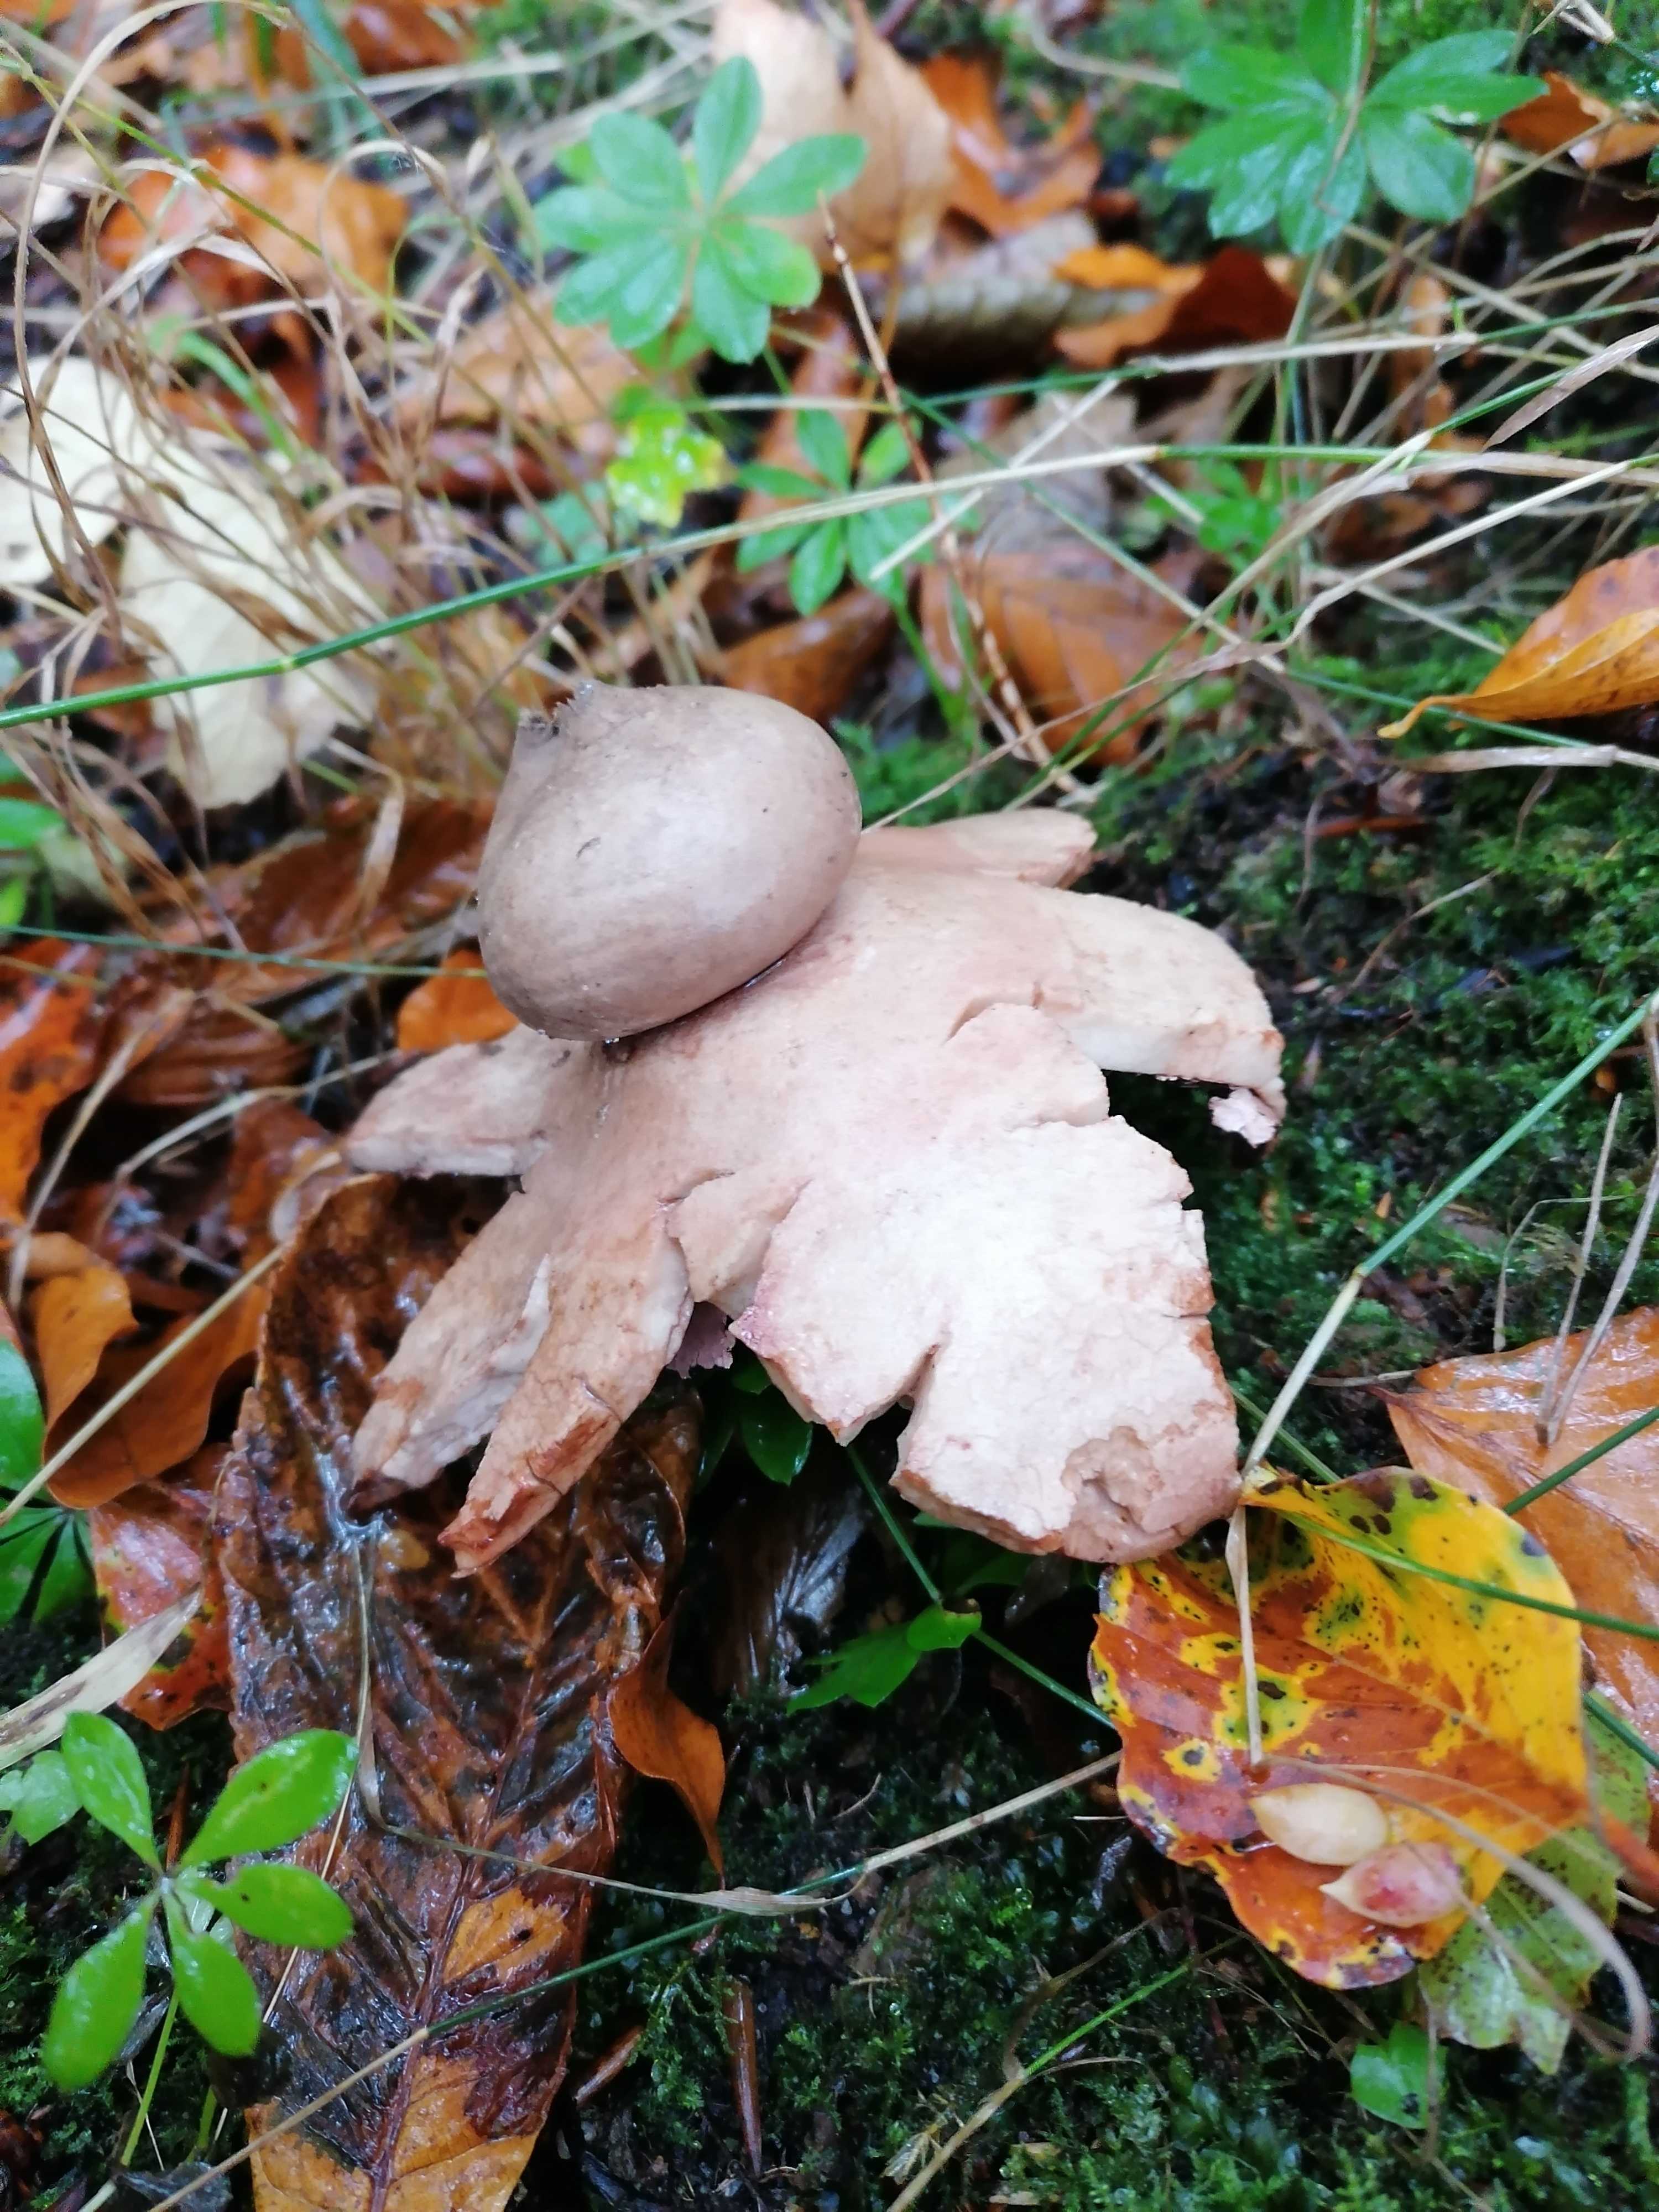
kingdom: Fungi
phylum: Basidiomycota
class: Agaricomycetes
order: Geastrales
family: Geastraceae
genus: Geastrum
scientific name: Geastrum rufescens
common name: kødfarvet stjernebold
